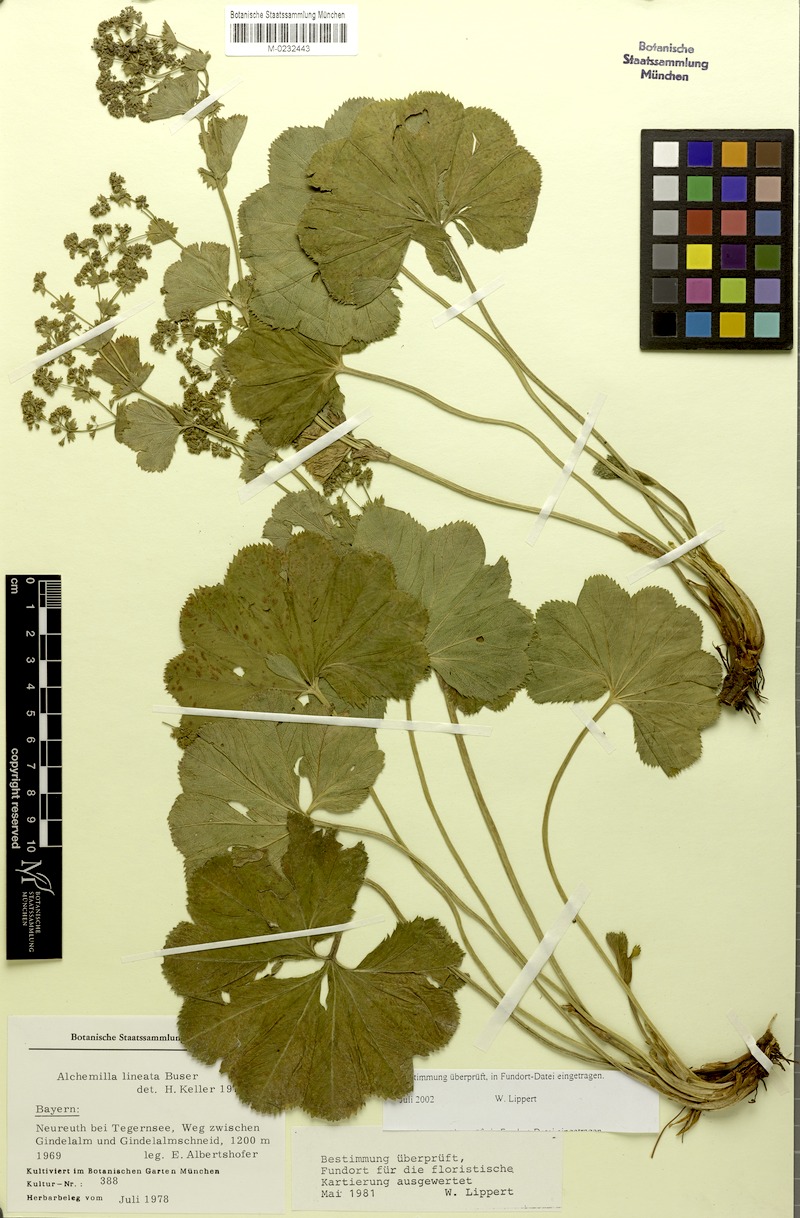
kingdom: Plantae
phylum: Tracheophyta
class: Magnoliopsida
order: Rosales
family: Rosaceae
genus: Alchemilla
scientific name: Alchemilla lineata
